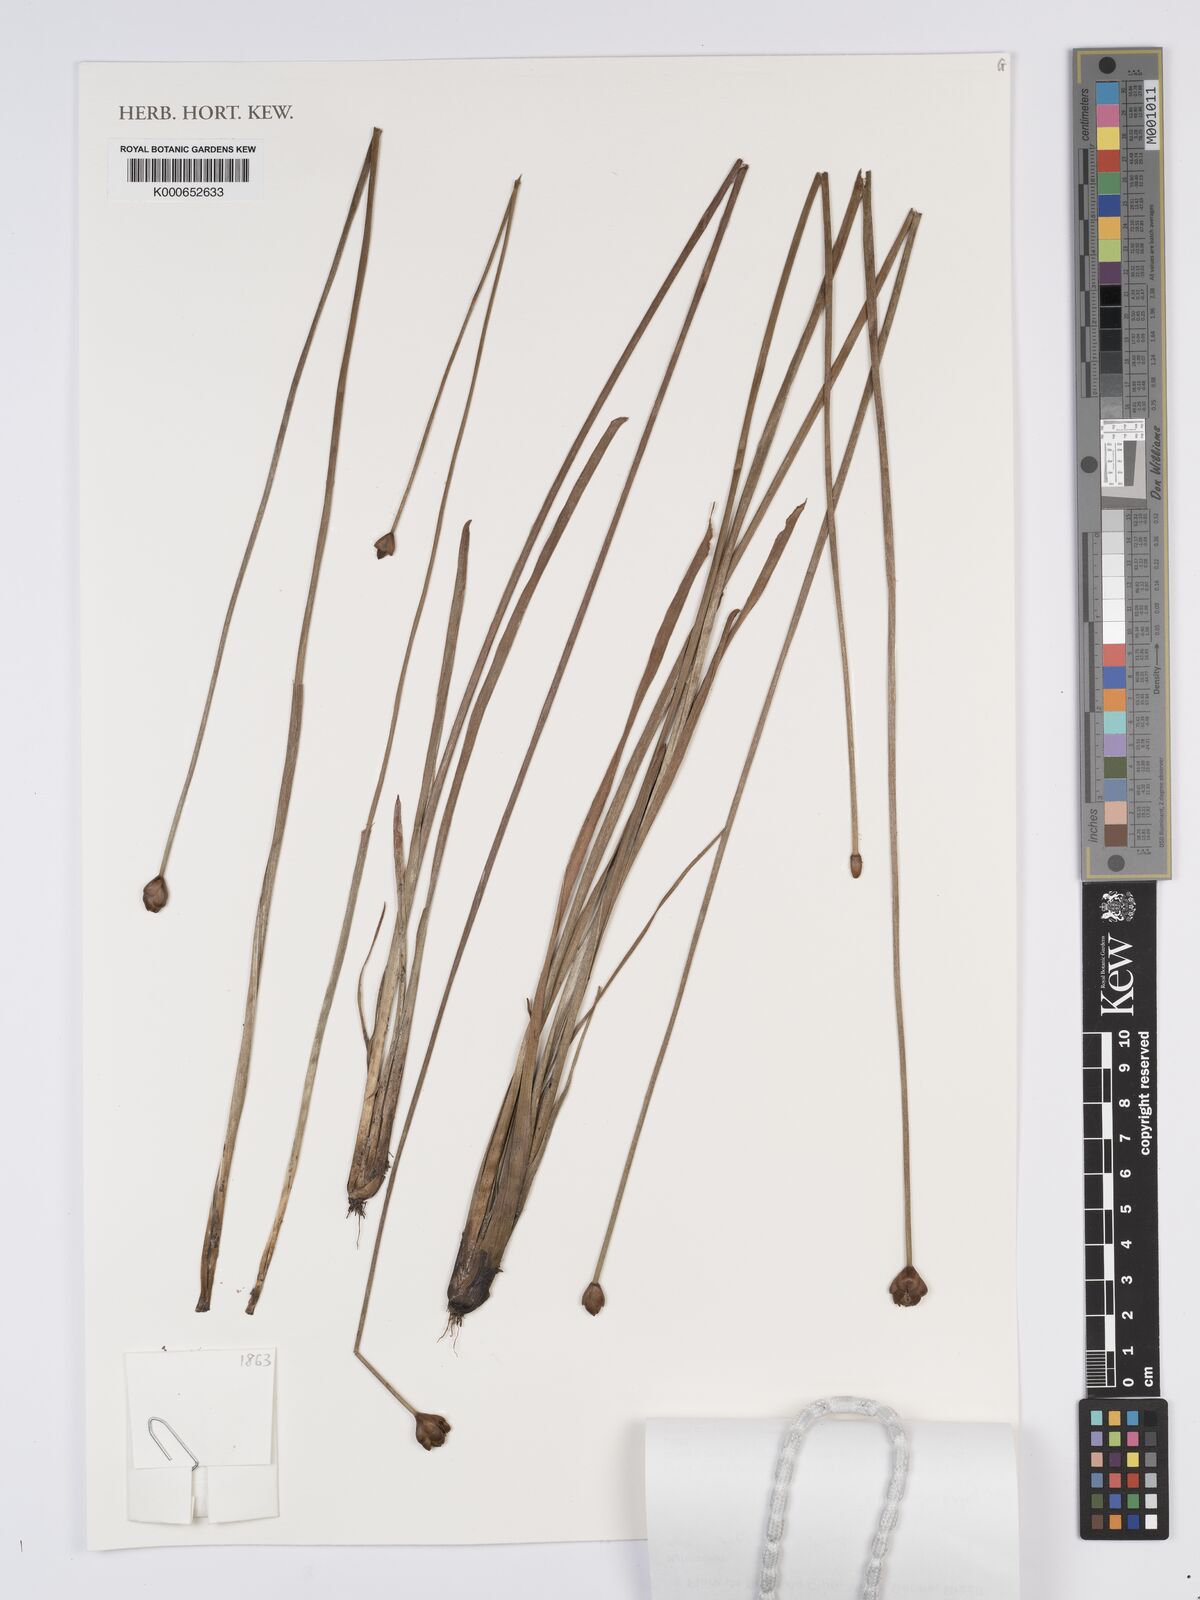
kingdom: Plantae
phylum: Tracheophyta
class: Liliopsida
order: Poales
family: Xyridaceae
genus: Xyris
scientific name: Xyris asperula
